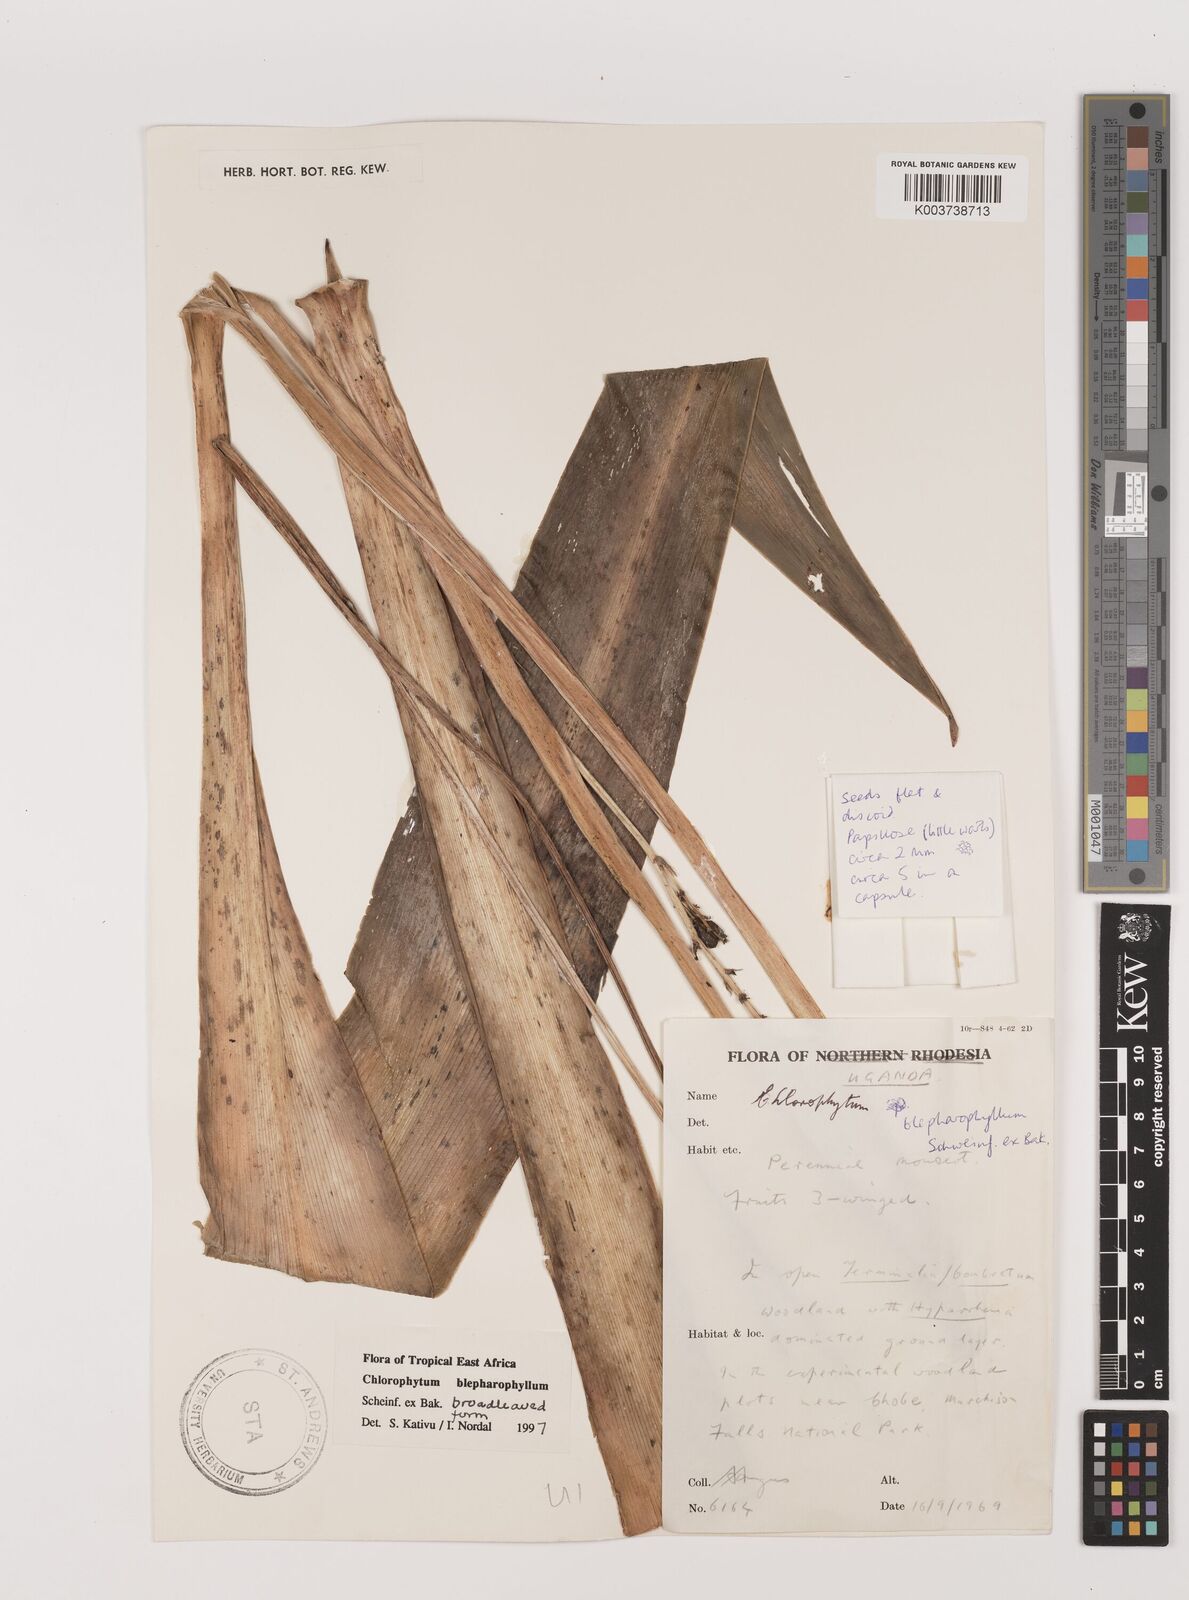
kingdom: Plantae
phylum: Tracheophyta
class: Liliopsida
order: Asparagales
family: Asparagaceae
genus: Chlorophytum
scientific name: Chlorophytum blepharophyllum
